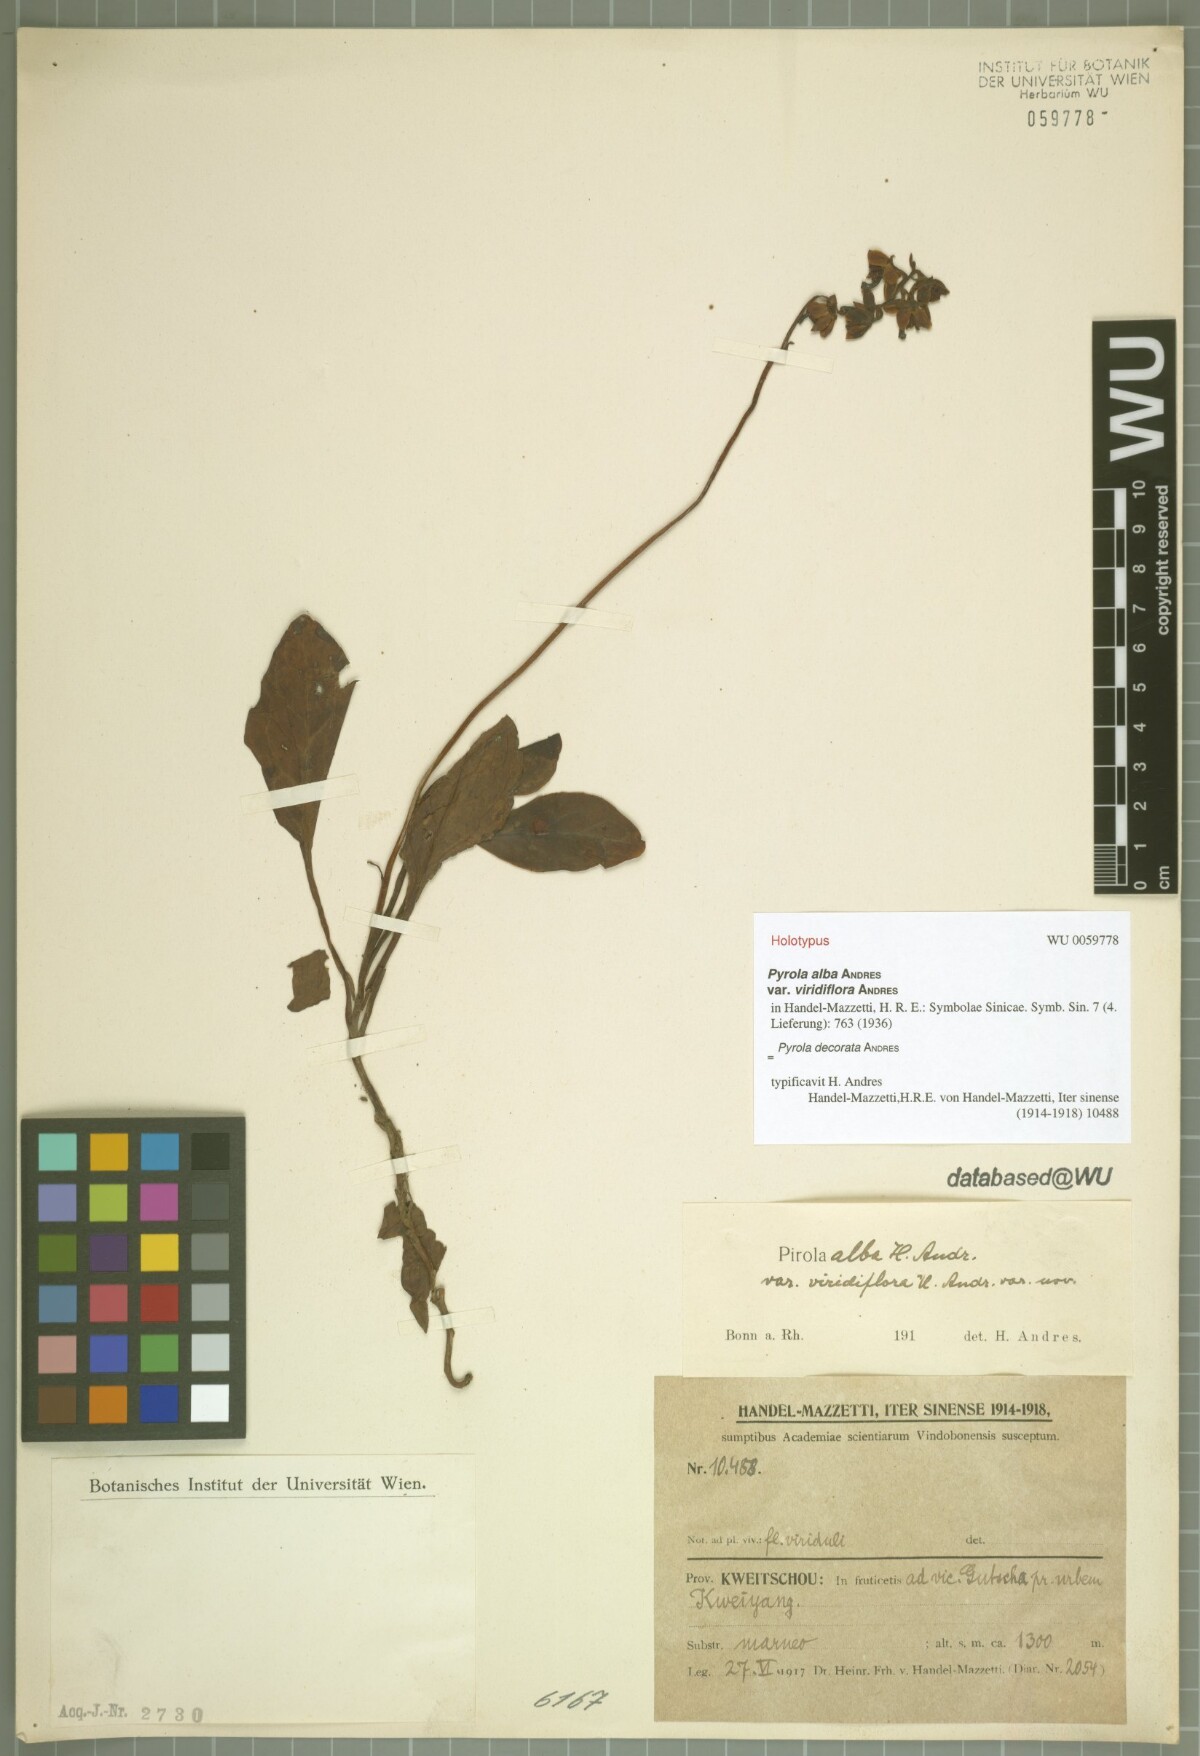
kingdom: Plantae
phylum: Tracheophyta
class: Magnoliopsida
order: Ericales
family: Ericaceae
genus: Pyrola
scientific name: Pyrola decorata
